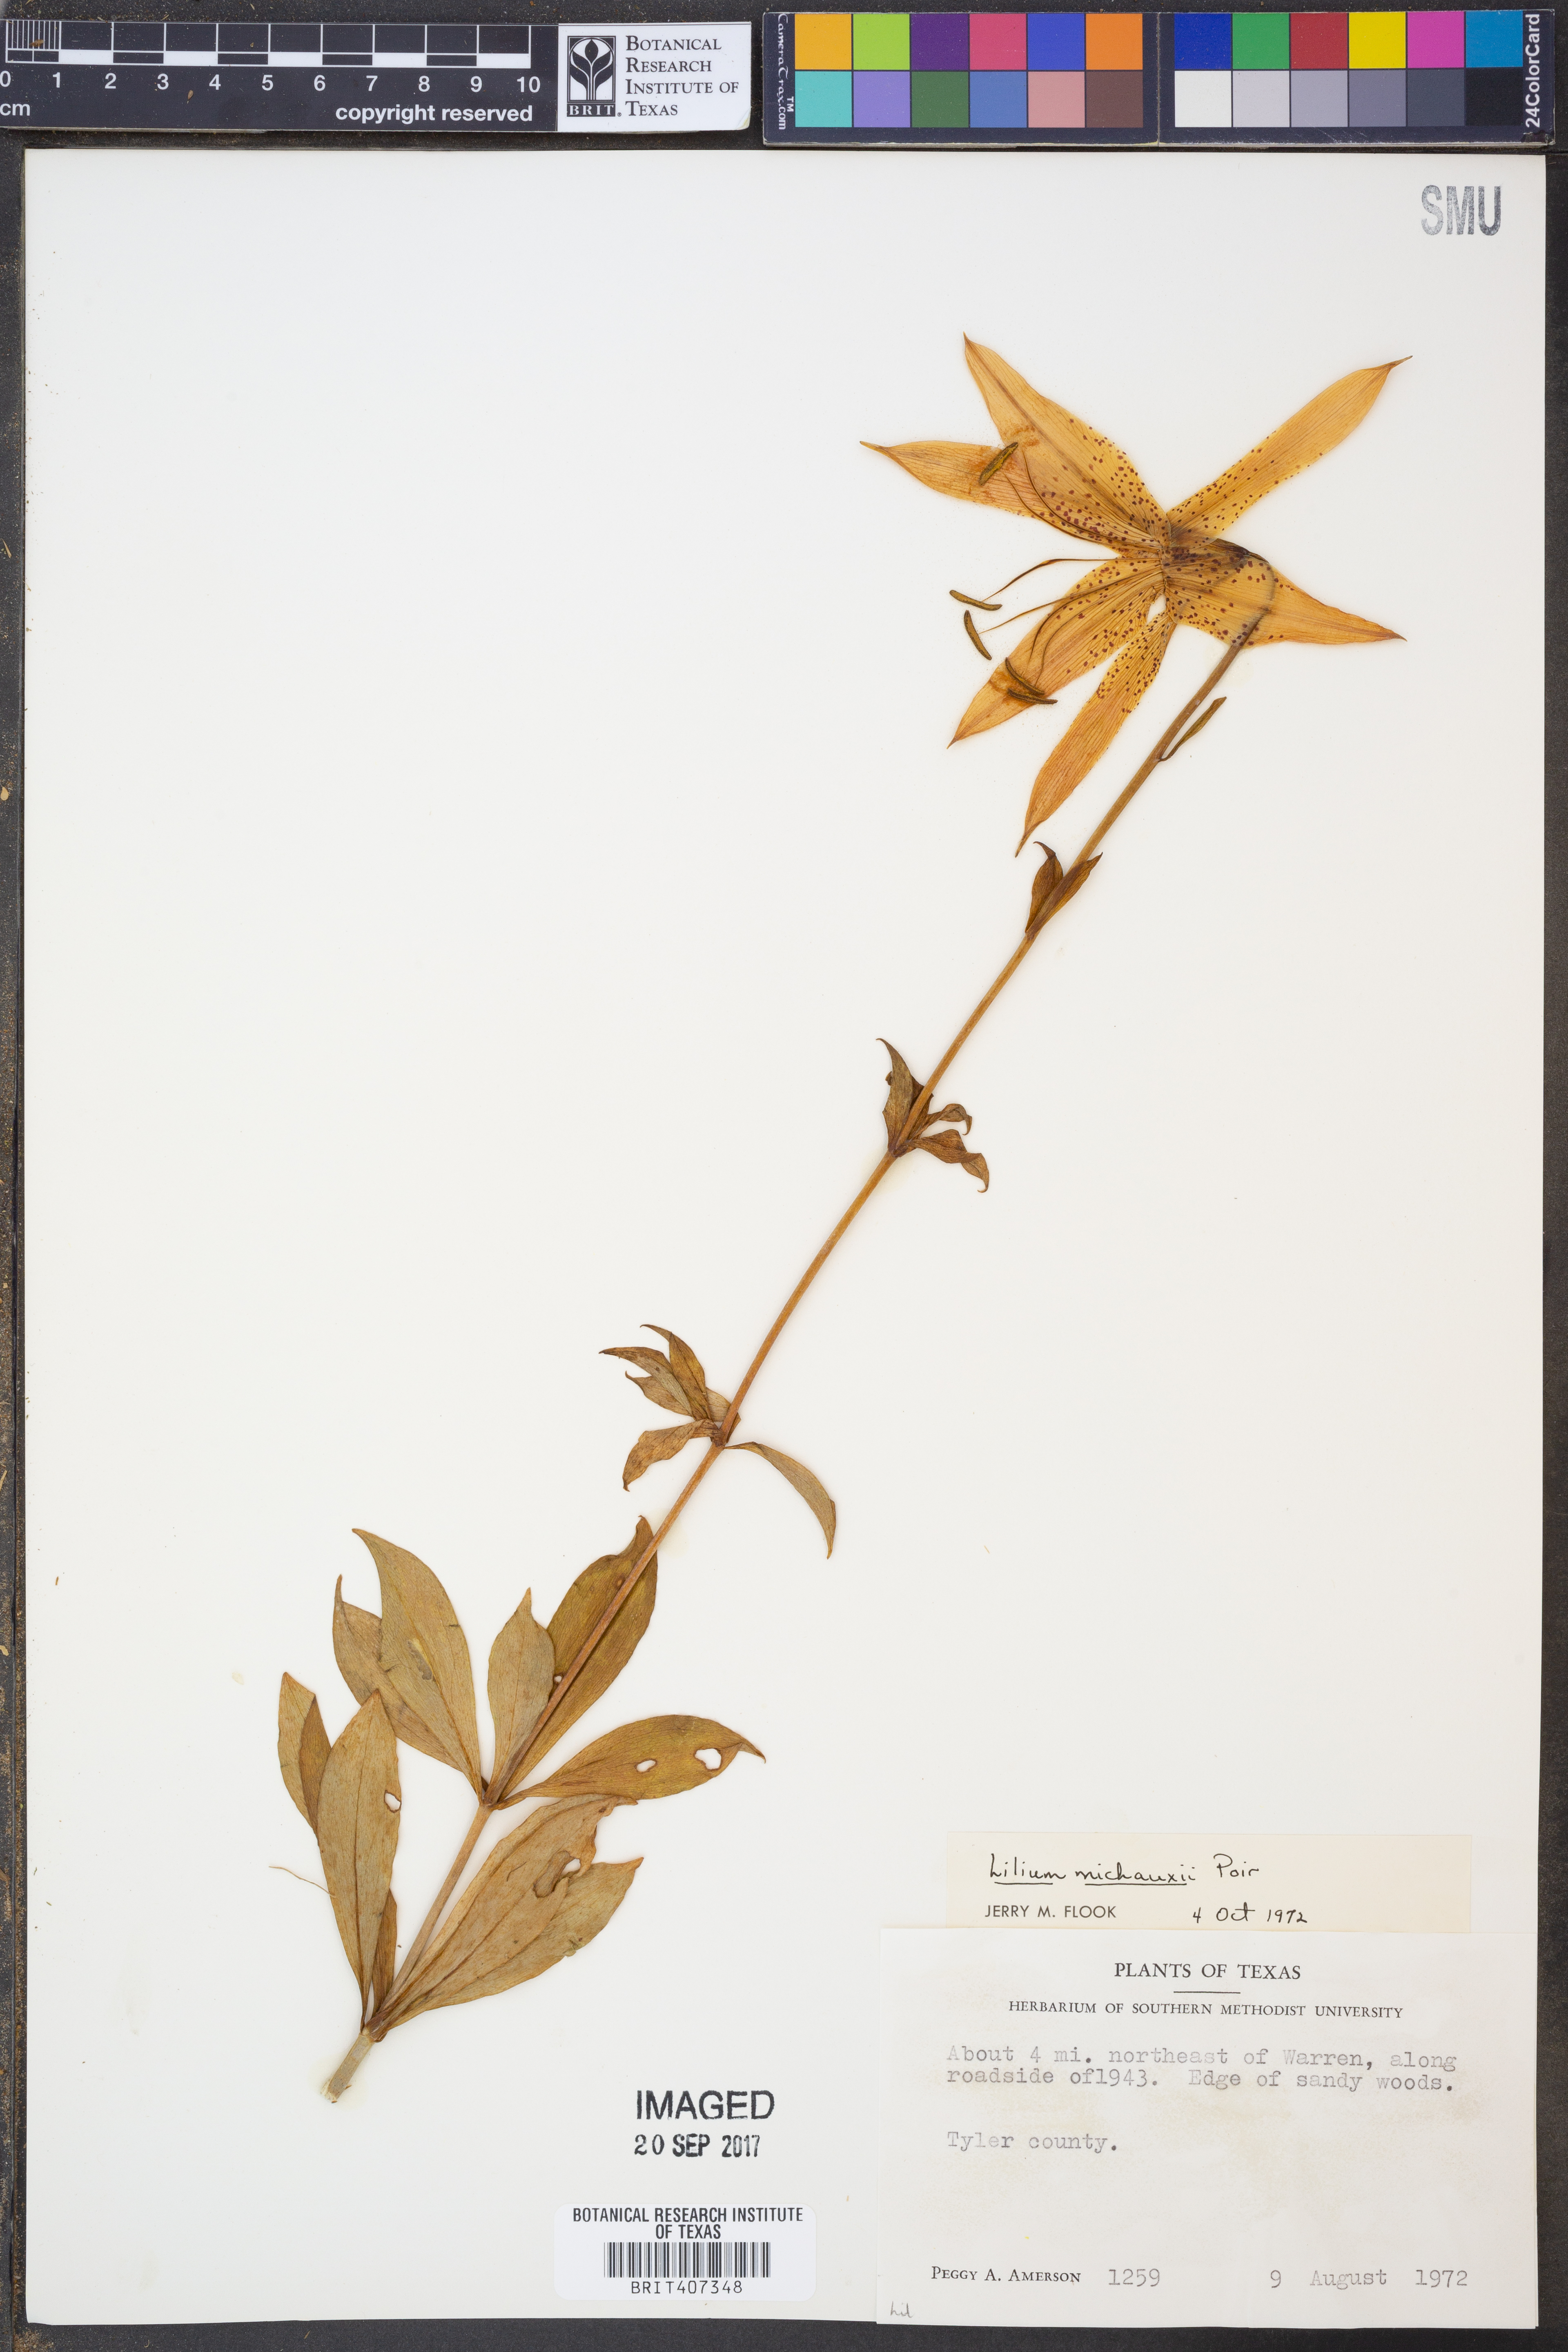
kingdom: Plantae
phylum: Tracheophyta
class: Liliopsida
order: Liliales
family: Liliaceae
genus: Lilium
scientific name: Lilium michauxii
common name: Carolina lily
